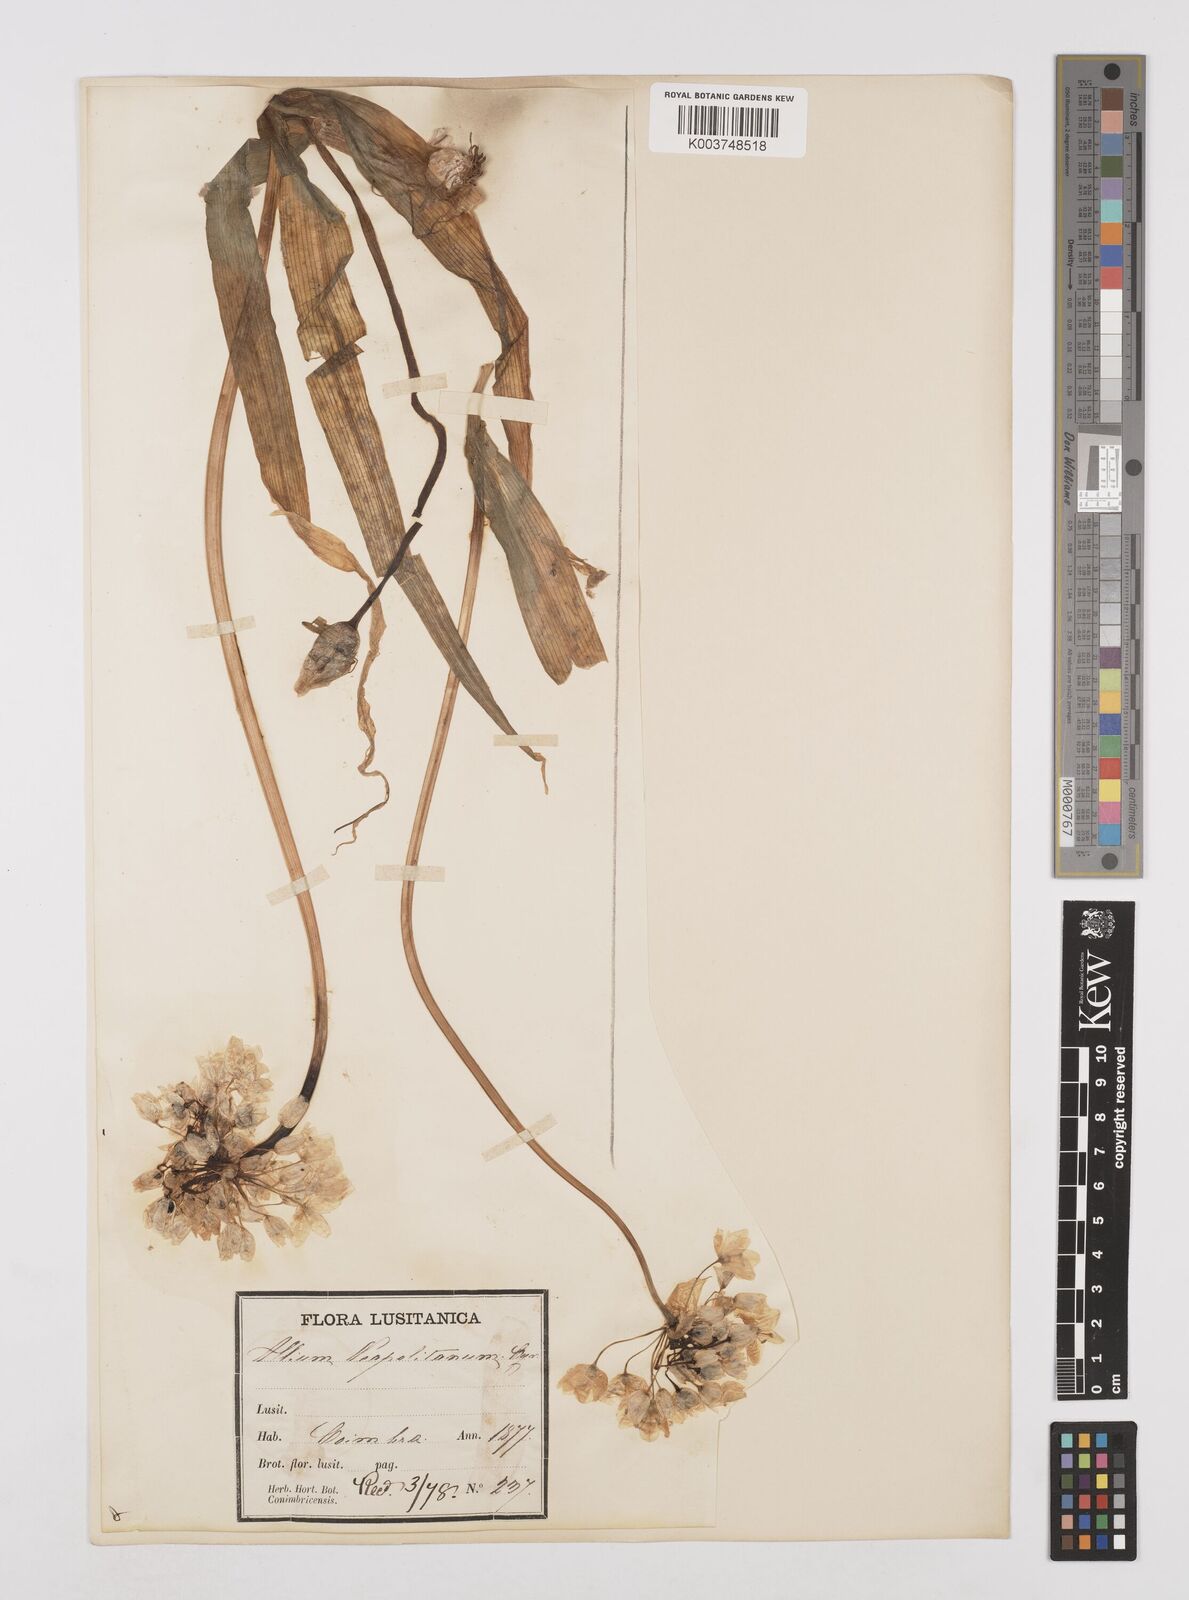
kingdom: Plantae
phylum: Tracheophyta
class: Liliopsida
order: Asparagales
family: Amaryllidaceae
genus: Allium
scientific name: Allium neapolitanum
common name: Neapolitan garlic
